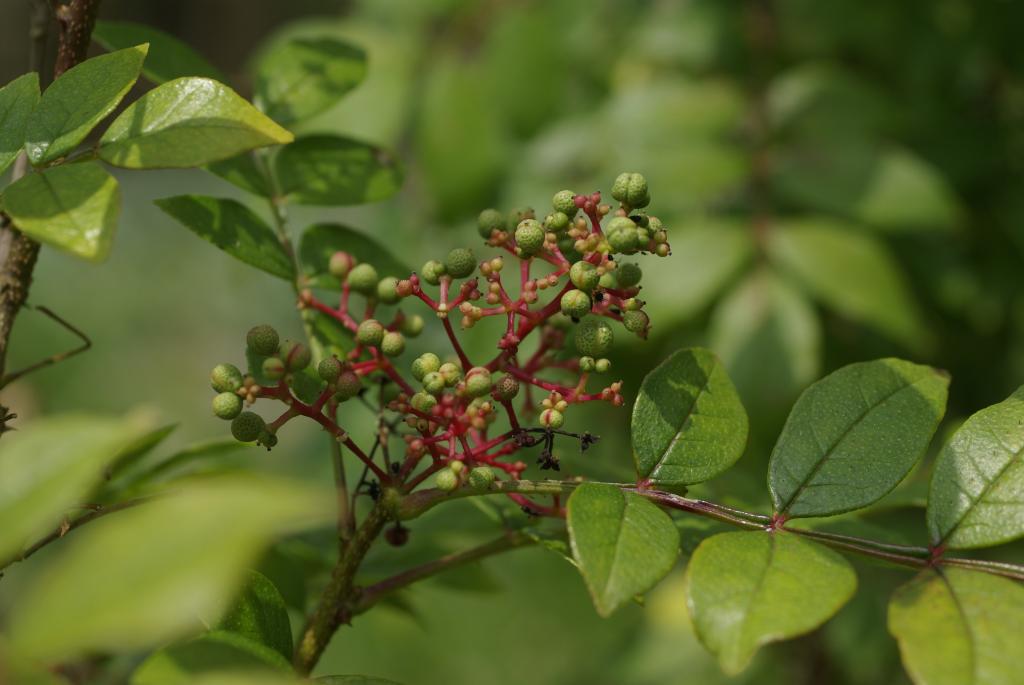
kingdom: Plantae
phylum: Tracheophyta
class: Magnoliopsida
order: Sapindales
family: Rutaceae
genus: Zanthoxylum
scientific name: Zanthoxylum simulans
